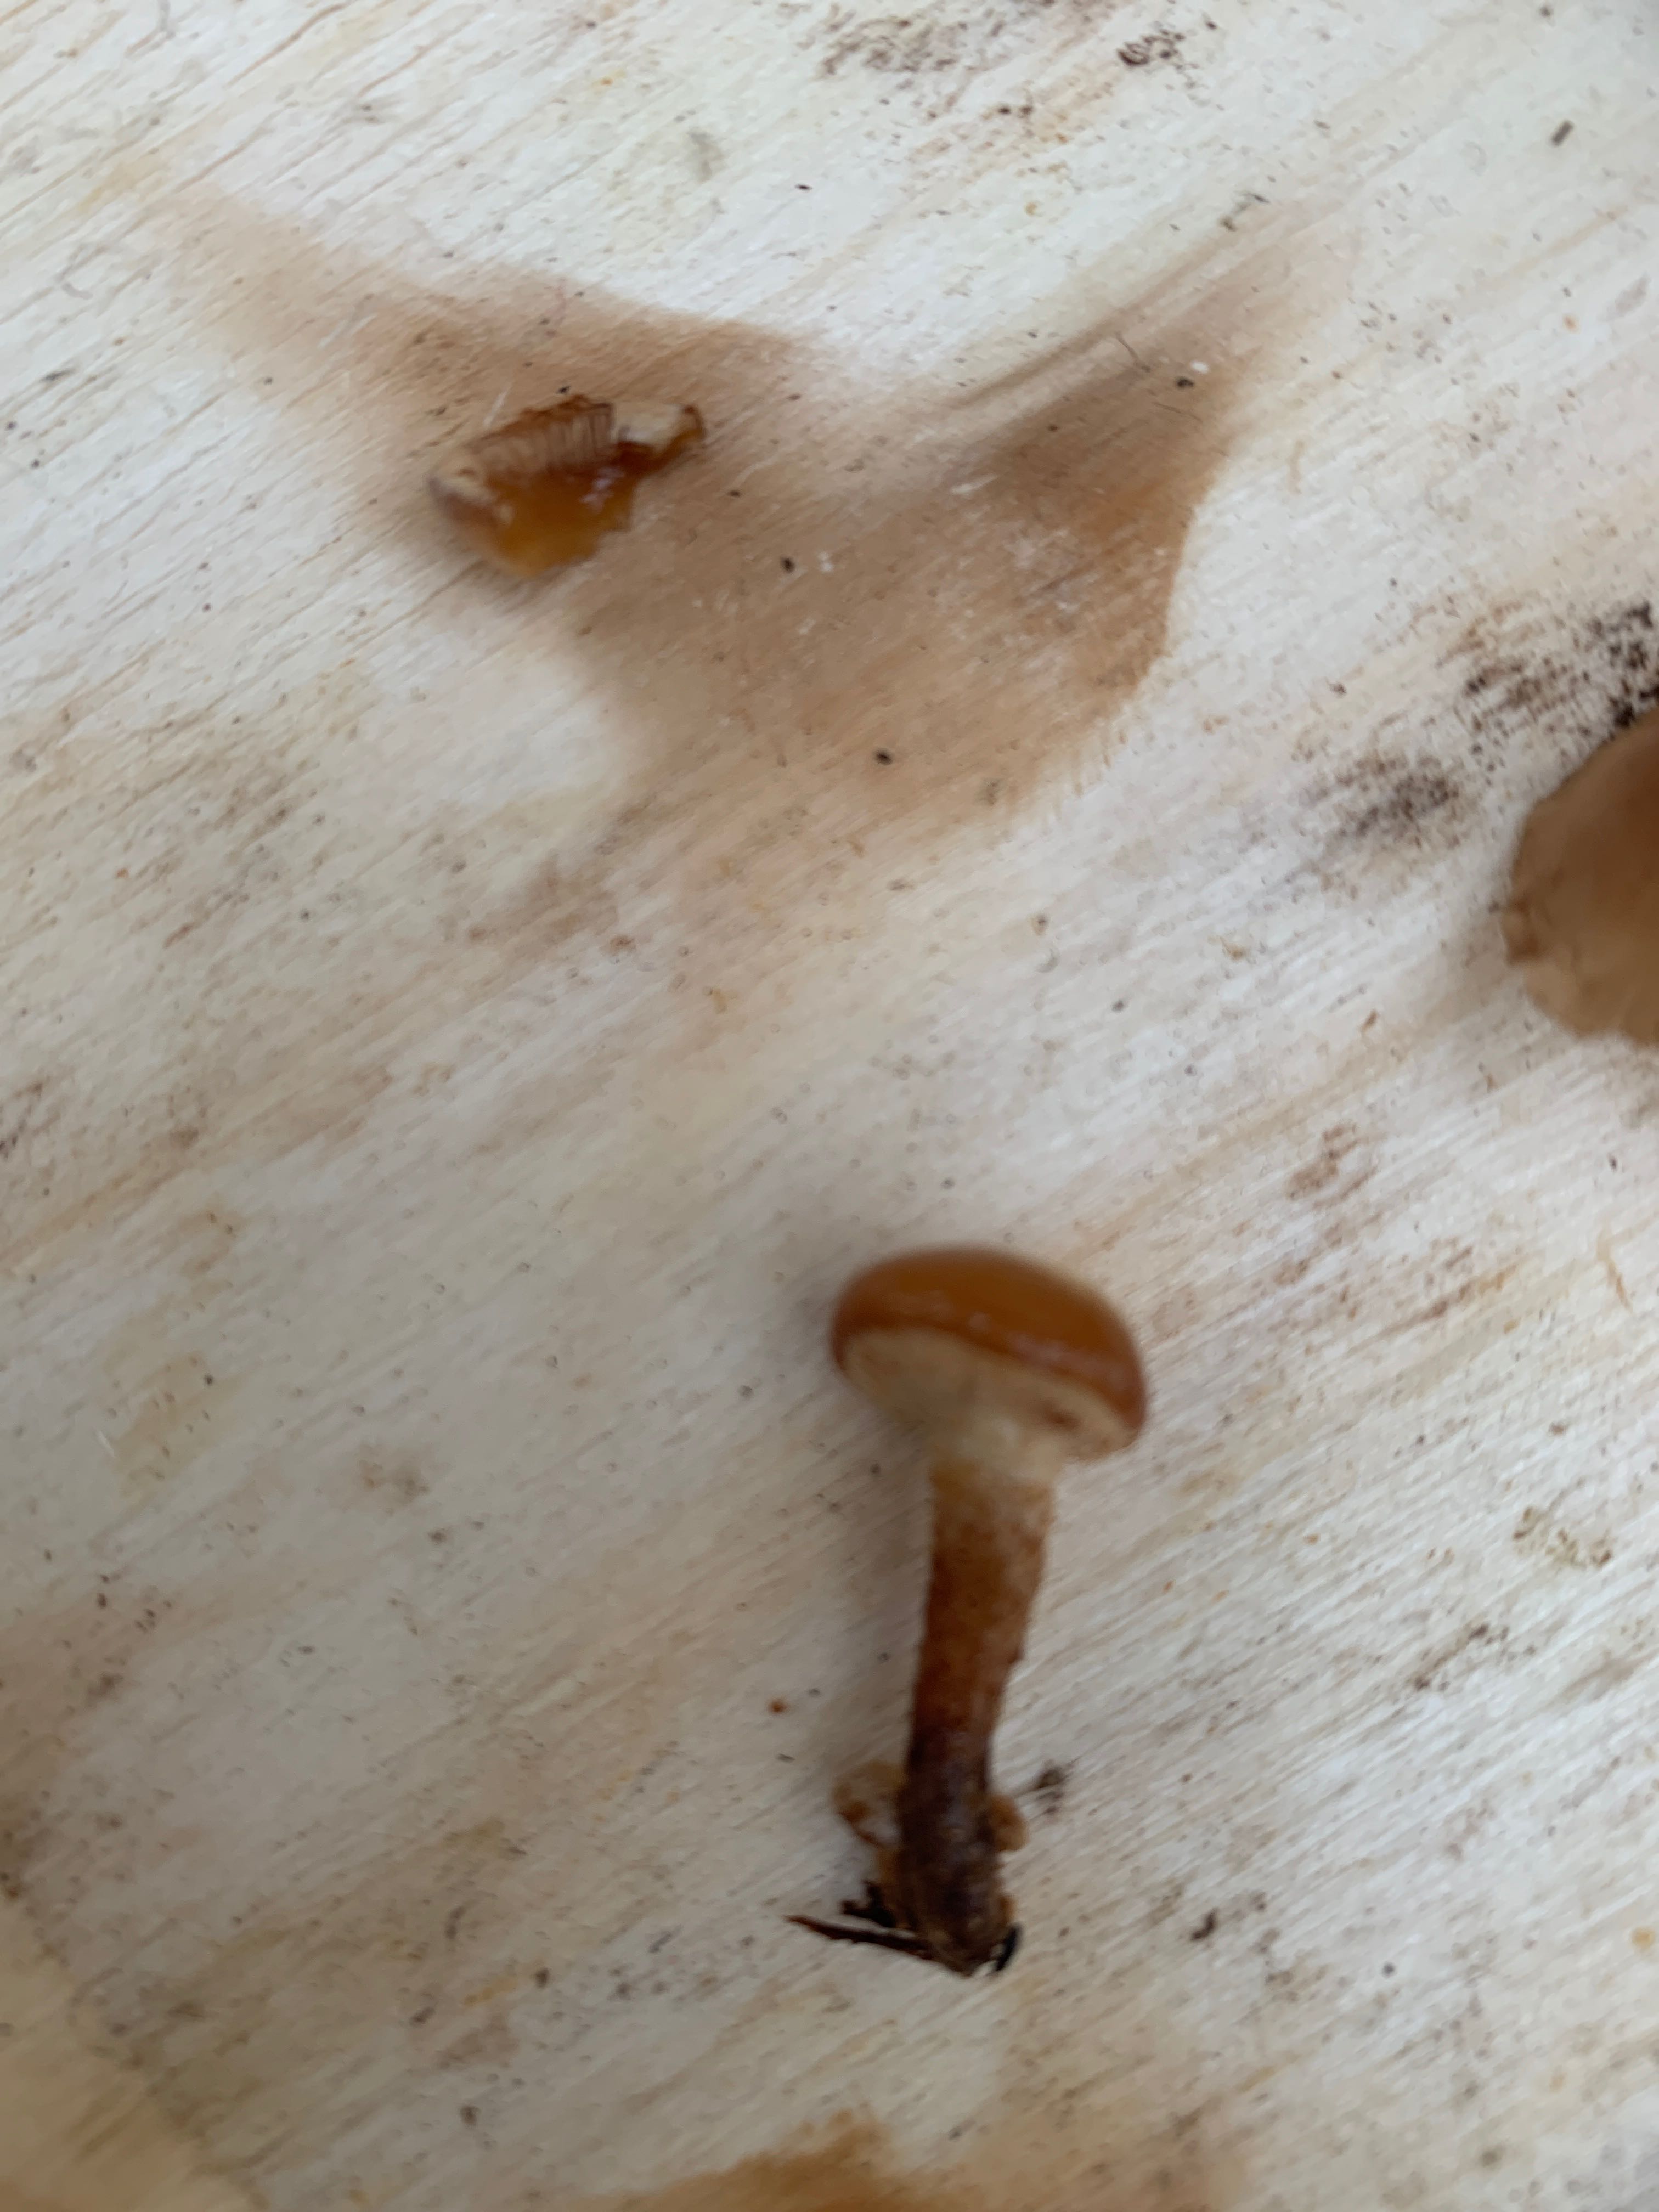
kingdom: Fungi
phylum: Basidiomycota
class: Agaricomycetes
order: Agaricales
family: Strophariaceae
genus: Kuehneromyces
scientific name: Kuehneromyces mutabilis
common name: foranderlig skælhat
